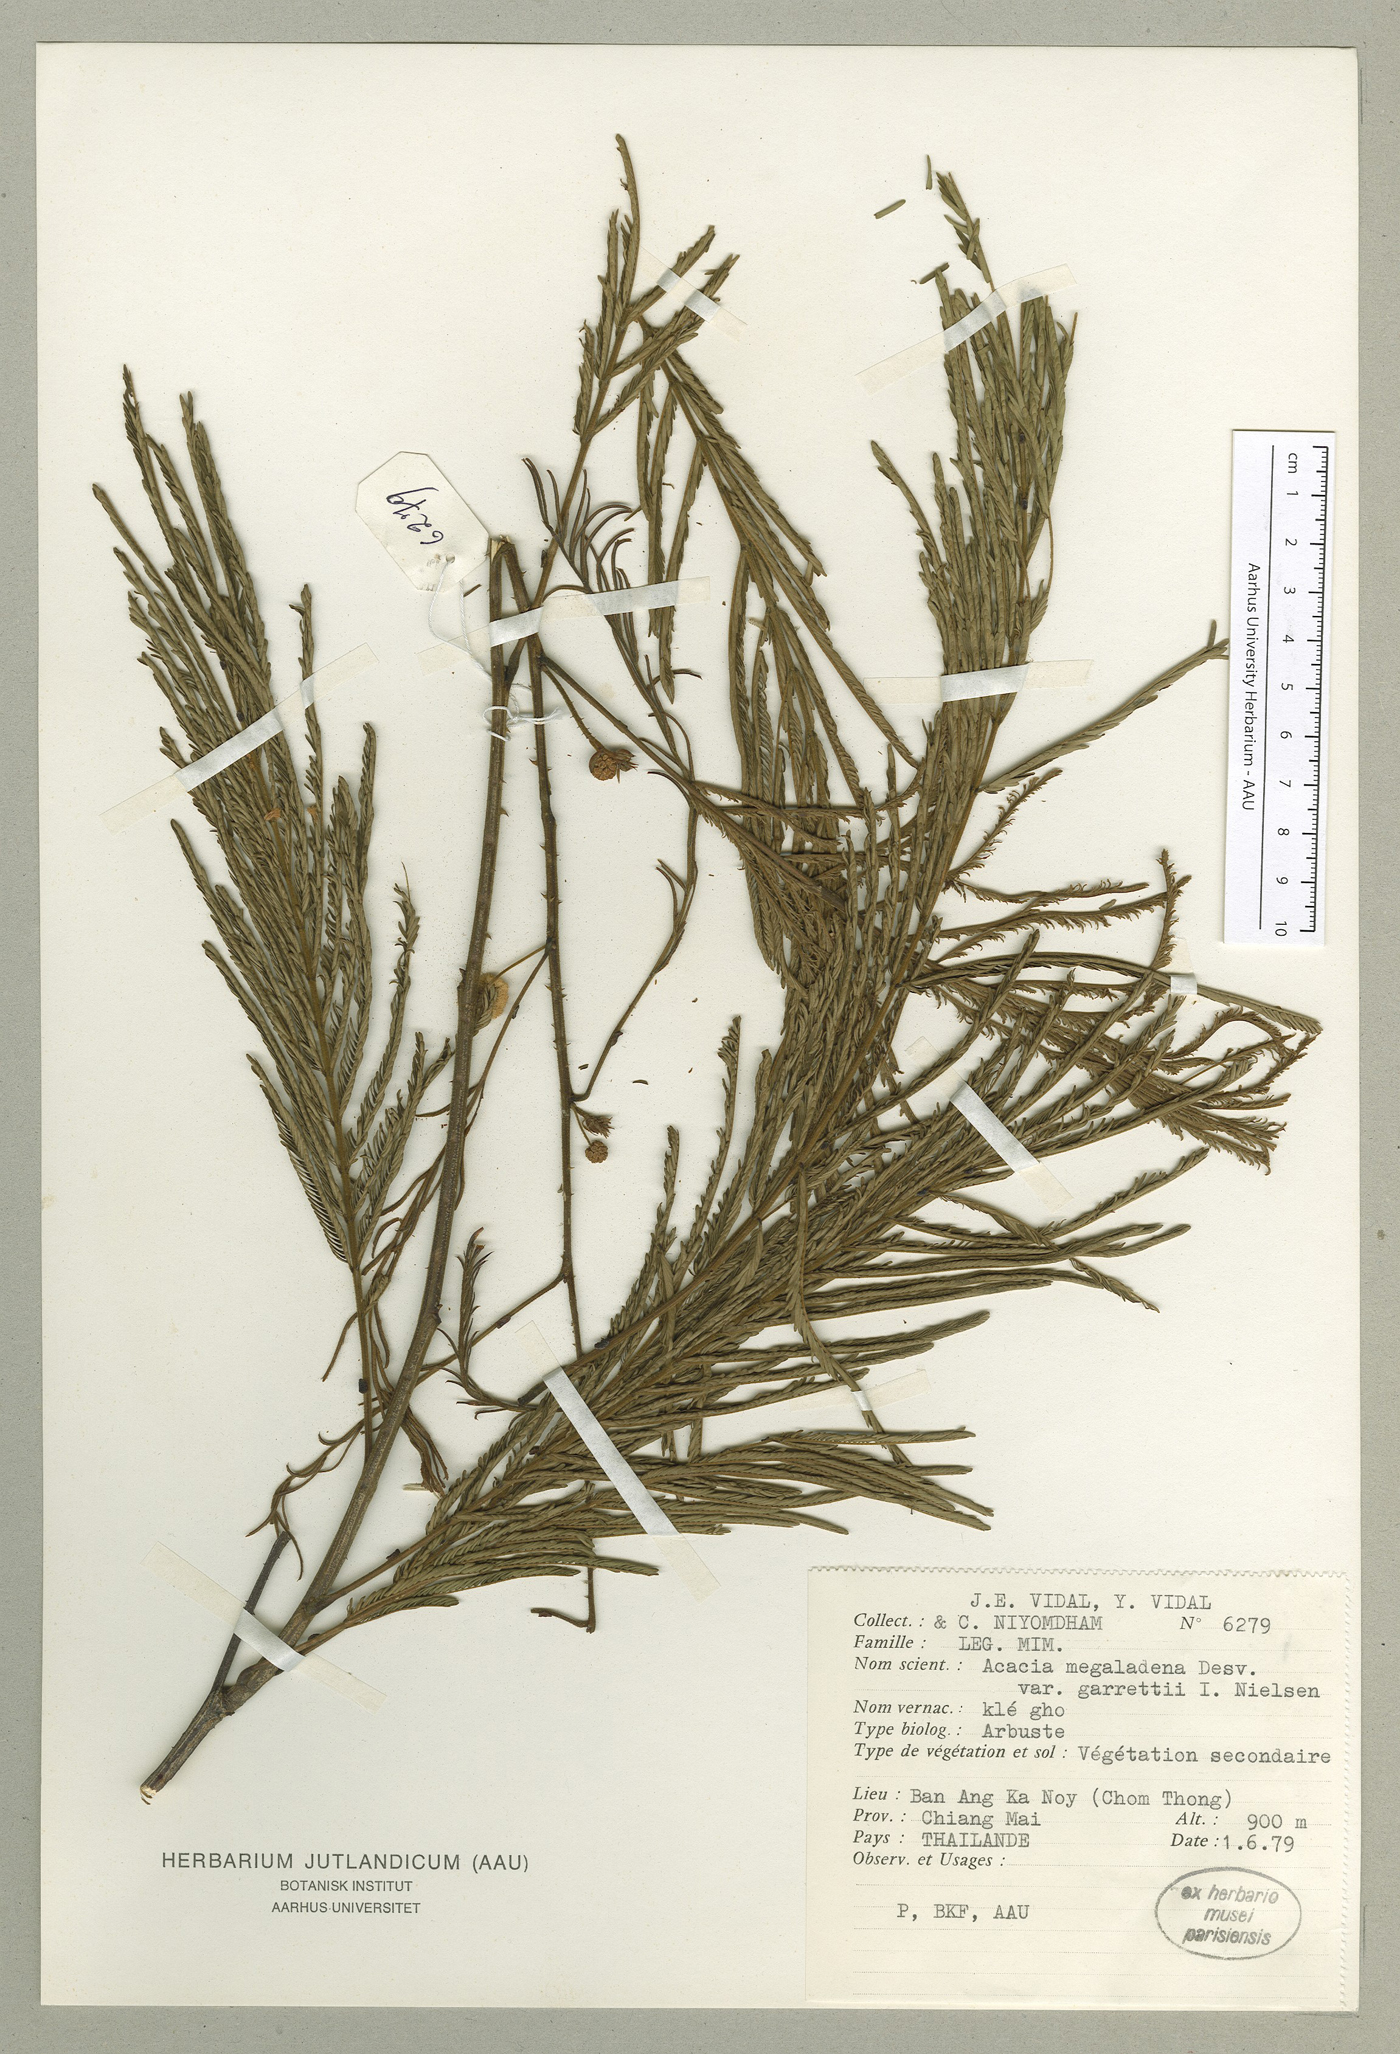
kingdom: Plantae
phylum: Tracheophyta
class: Magnoliopsida
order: Fabales
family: Fabaceae
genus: Senegalia
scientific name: Senegalia megaladena
